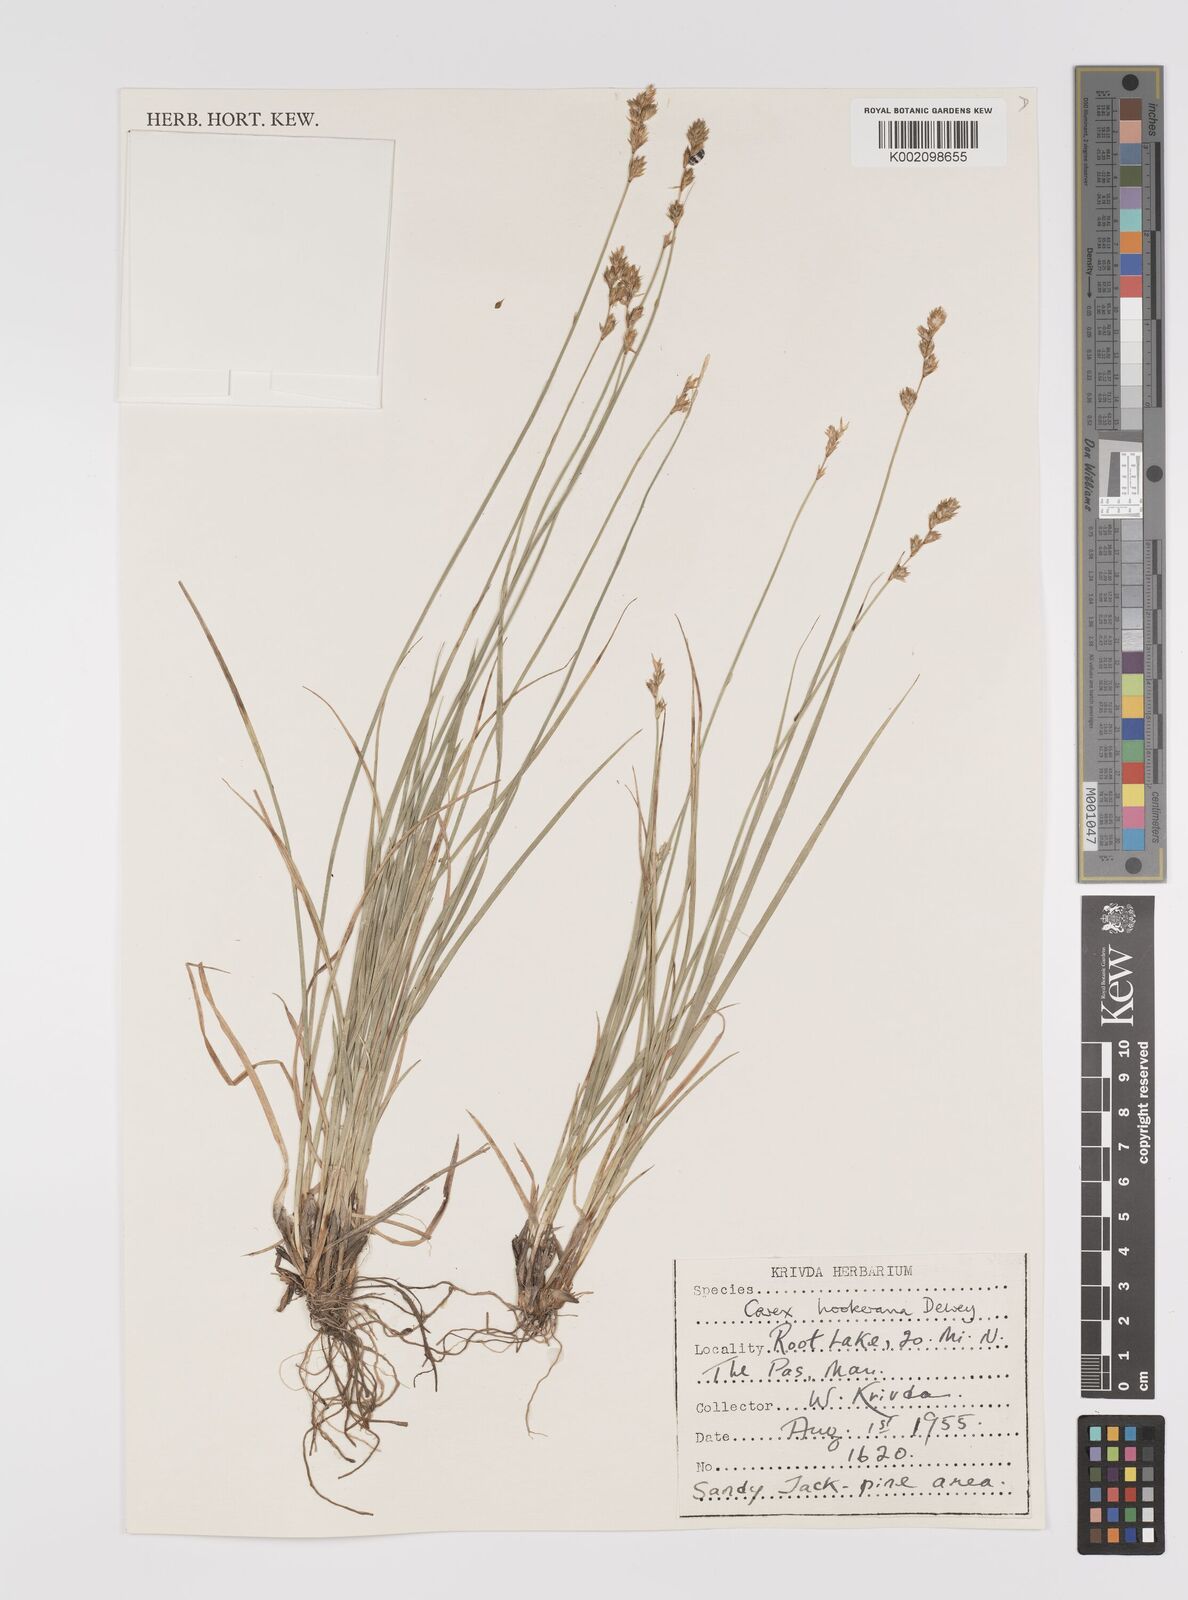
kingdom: Plantae
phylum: Tracheophyta
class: Liliopsida
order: Poales
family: Cyperaceae
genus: Carex
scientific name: Carex hookeriana
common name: Hooker's sedge
